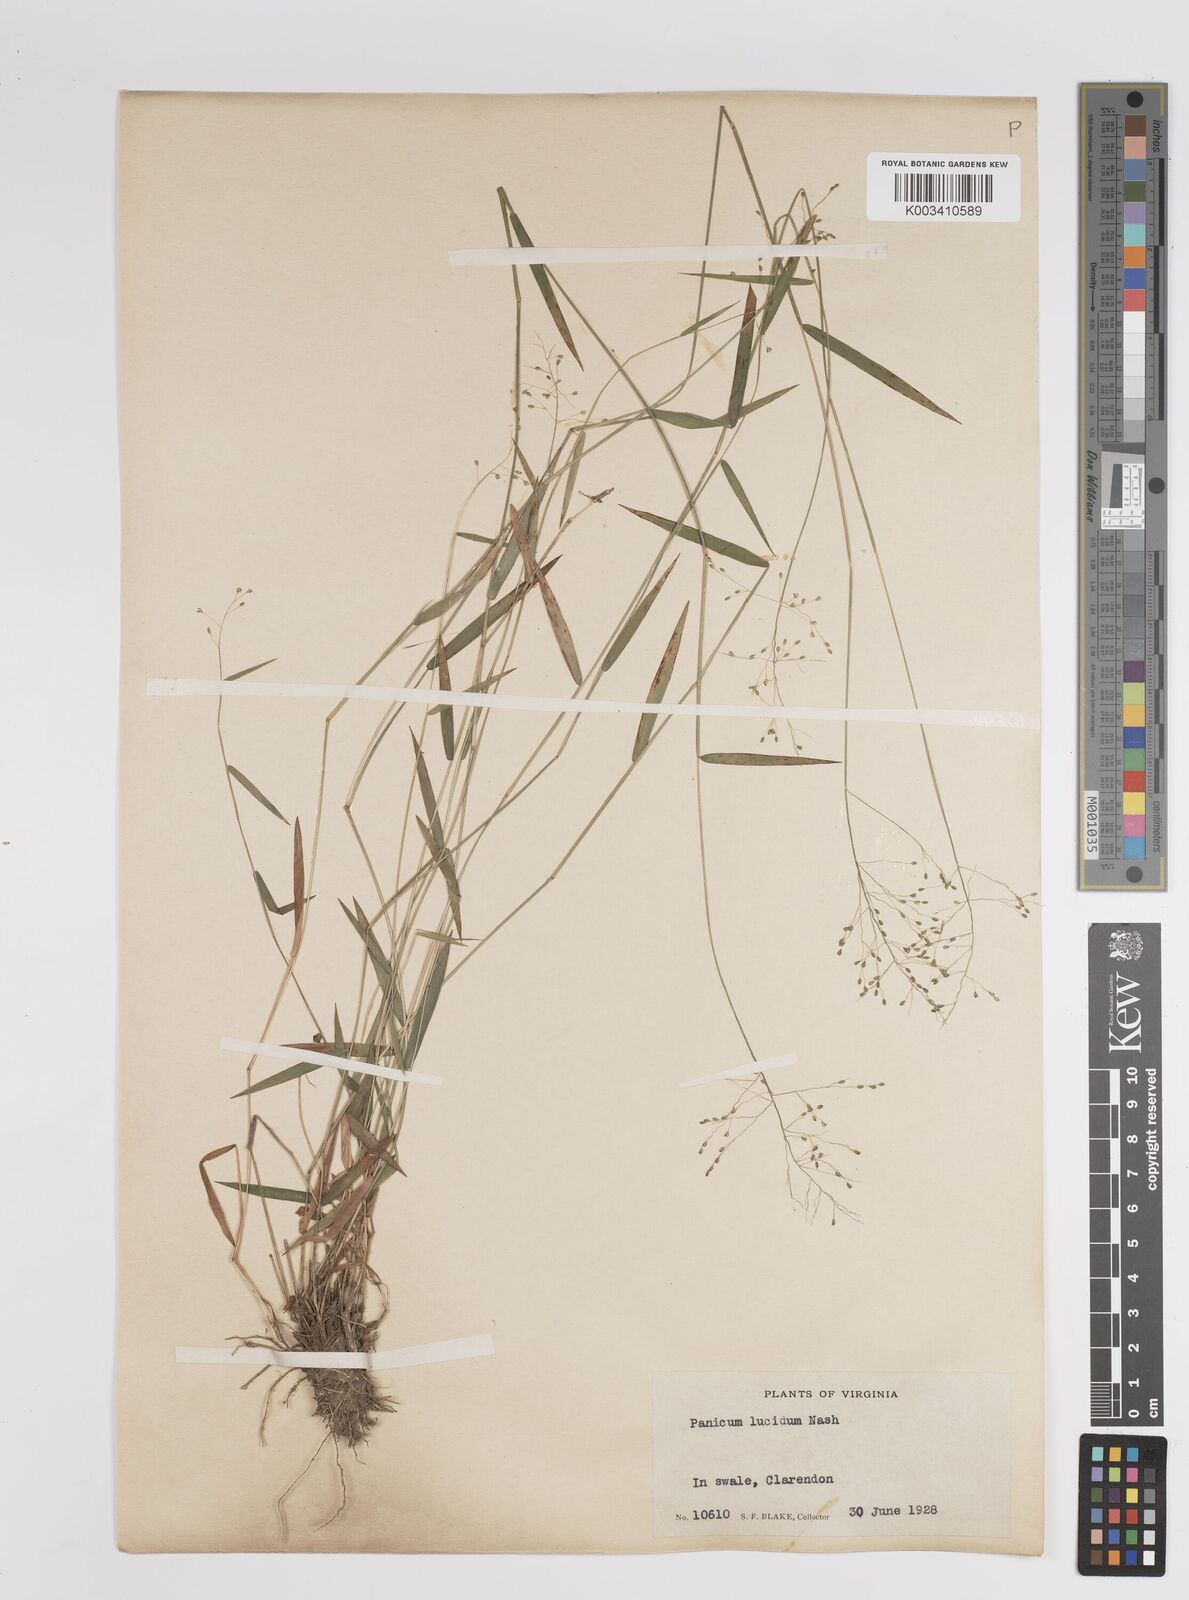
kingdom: Plantae
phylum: Tracheophyta
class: Liliopsida
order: Poales
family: Poaceae
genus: Dichanthelium
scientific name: Dichanthelium lucidum
